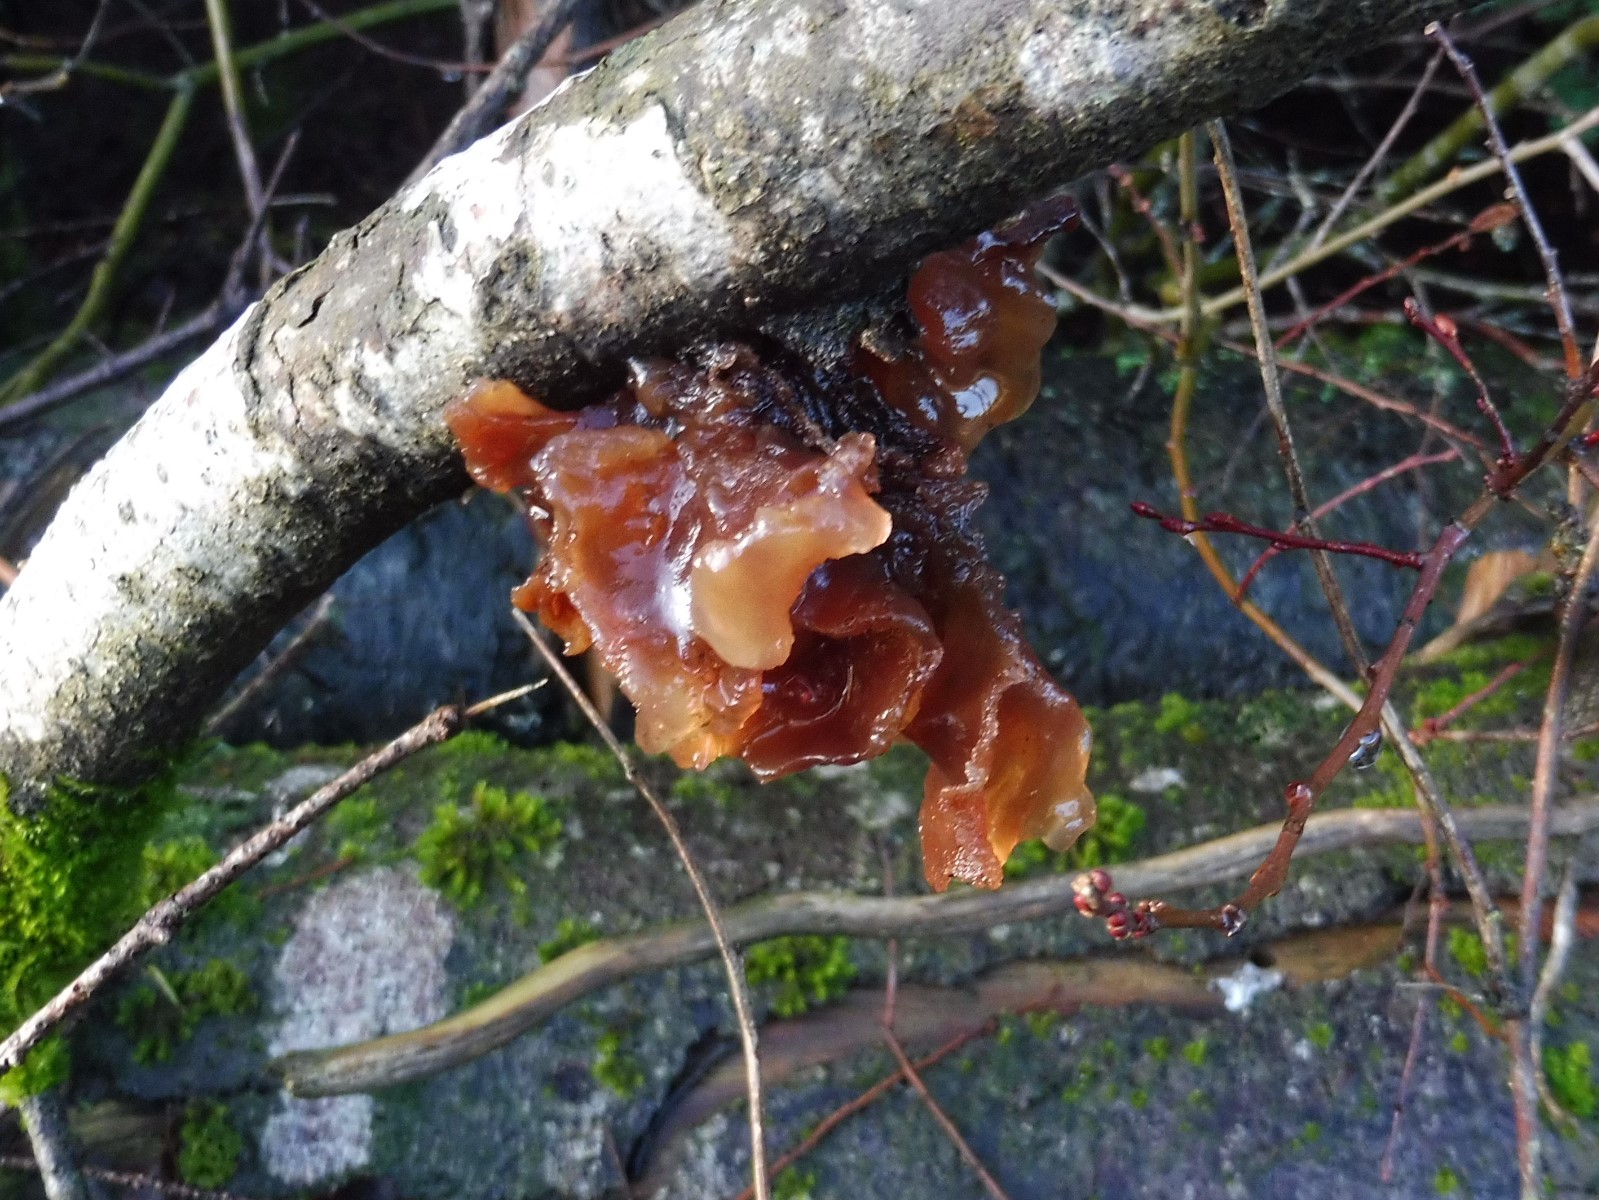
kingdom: Fungi
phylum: Basidiomycota
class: Tremellomycetes
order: Tremellales
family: Tremellaceae
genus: Phaeotremella
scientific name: Phaeotremella foliacea
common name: brun bævresvamp
